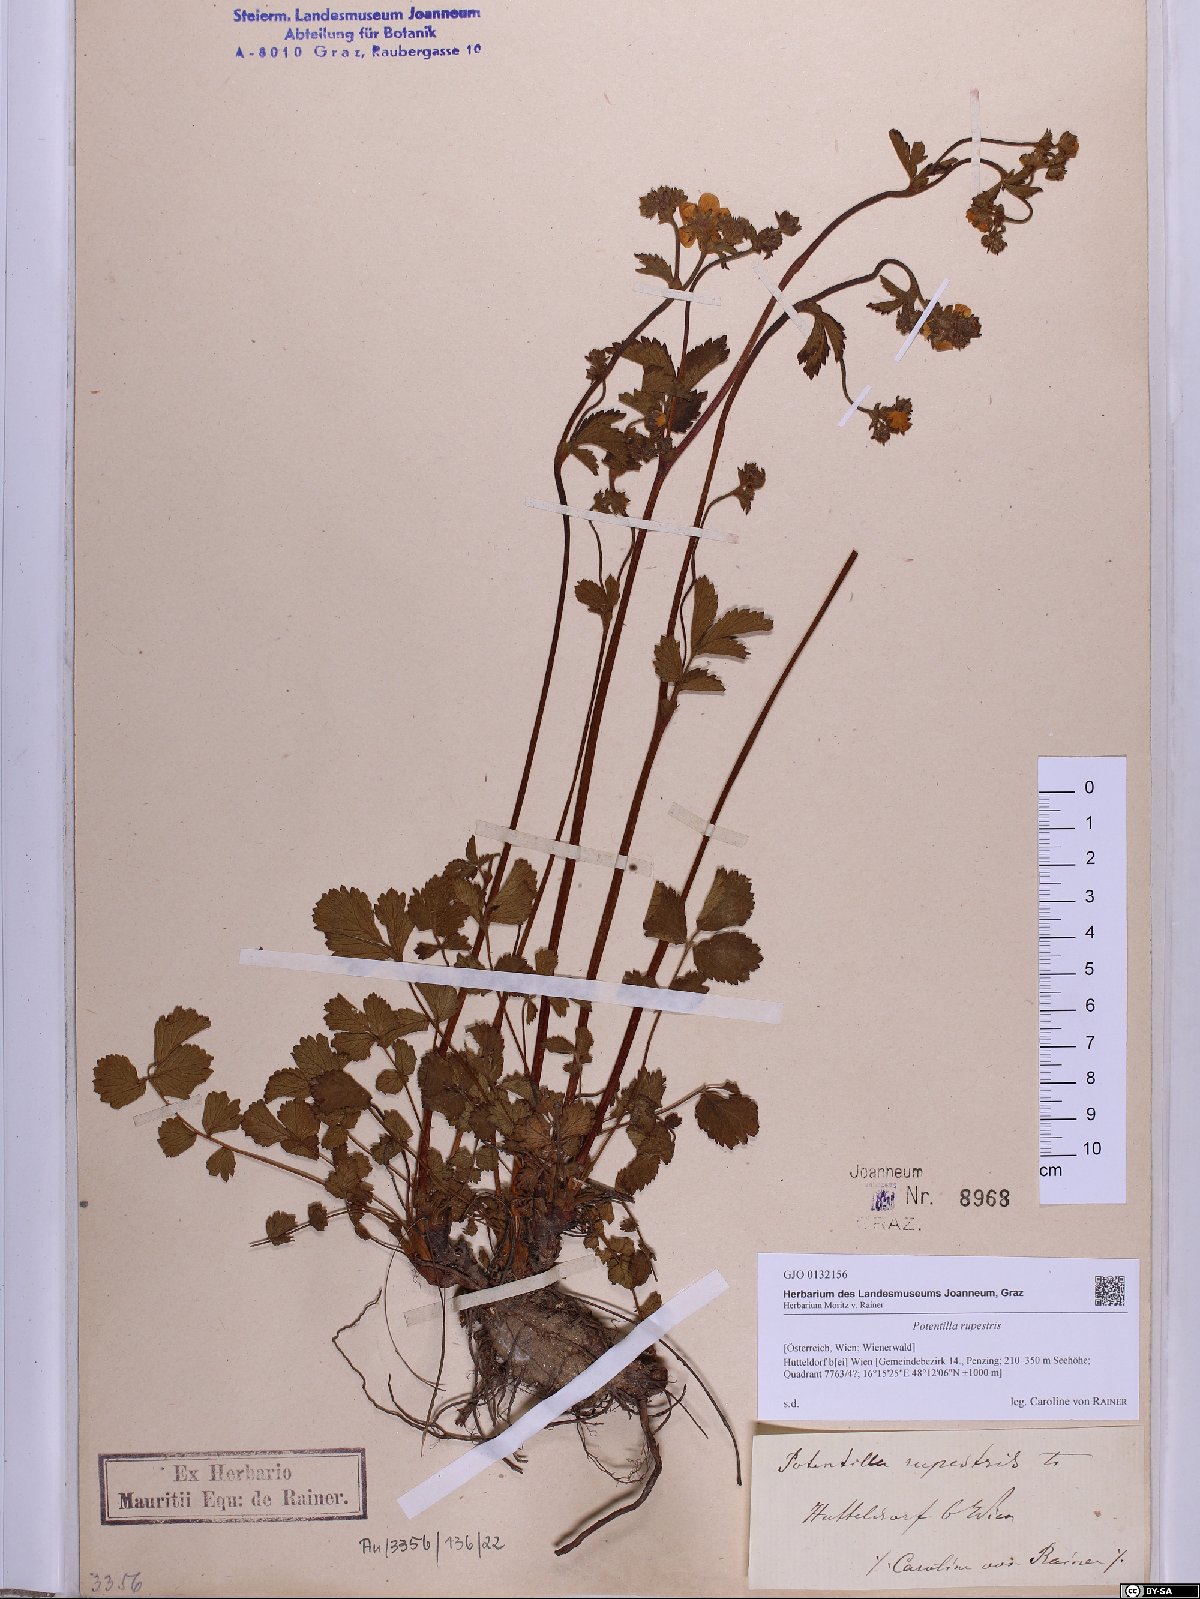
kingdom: Plantae
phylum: Tracheophyta
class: Magnoliopsida
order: Rosales
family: Rosaceae
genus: Drymocallis
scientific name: Drymocallis rupestris
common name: Rock cinquefoil
